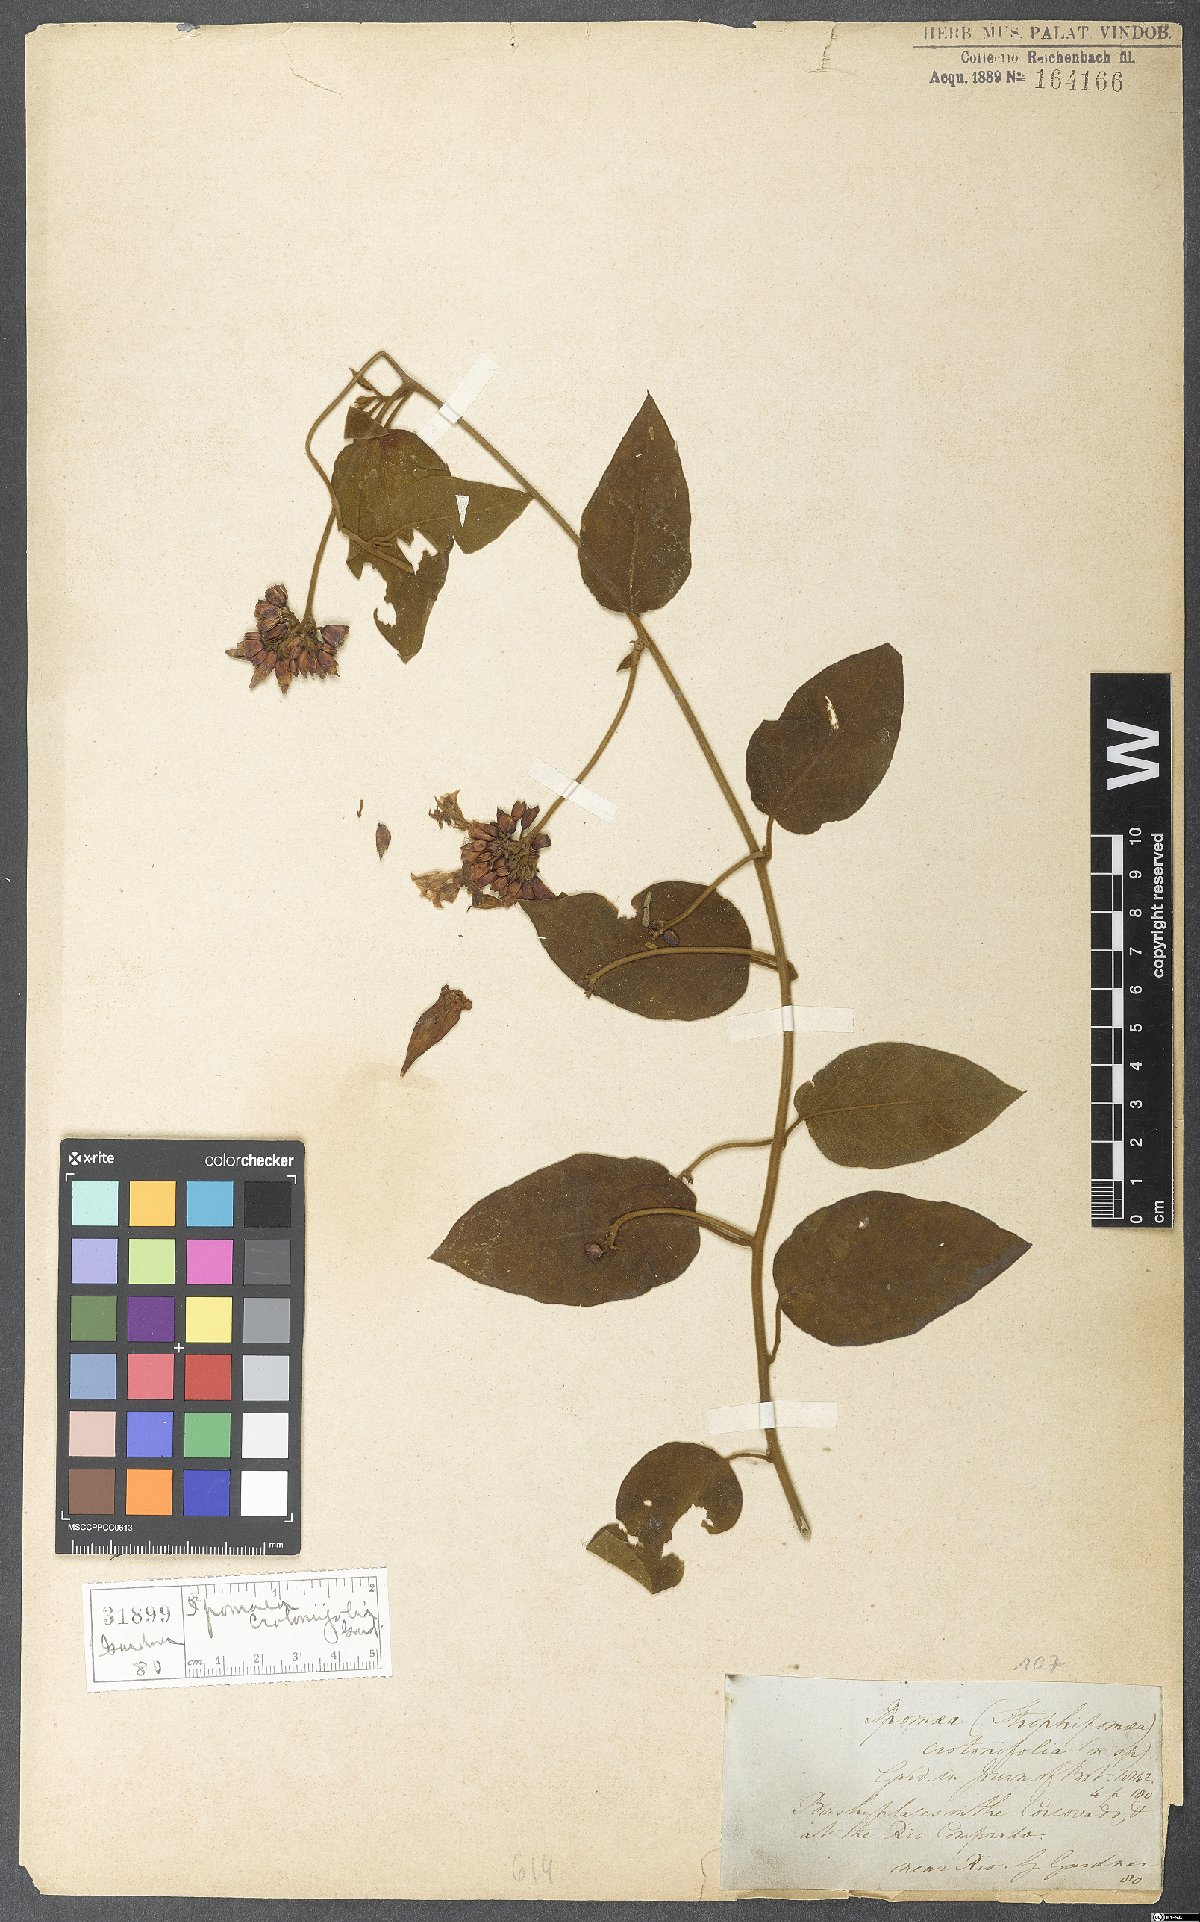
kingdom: Plantae
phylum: Tracheophyta
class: Magnoliopsida
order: Solanales
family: Convolvulaceae
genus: Jacquemontia
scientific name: Jacquemontia holosericea
